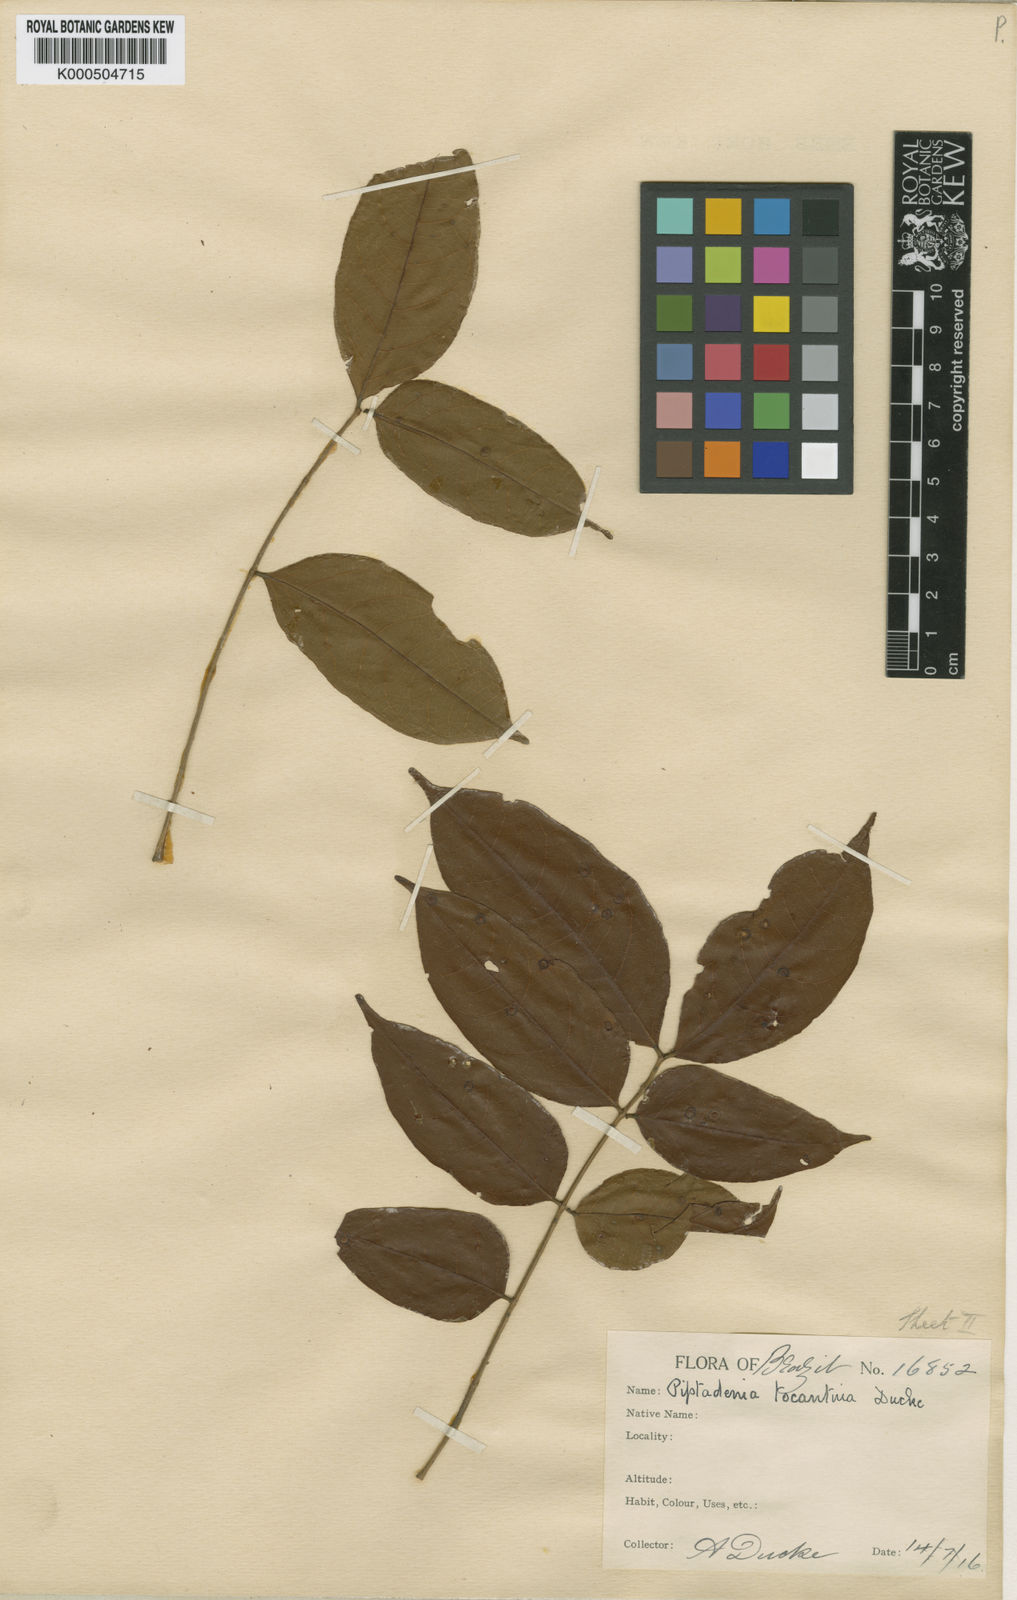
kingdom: Plantae
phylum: Tracheophyta
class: Magnoliopsida
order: Fabales
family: Fabaceae
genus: Stryphnodendron
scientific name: Stryphnodendron polystachyum
